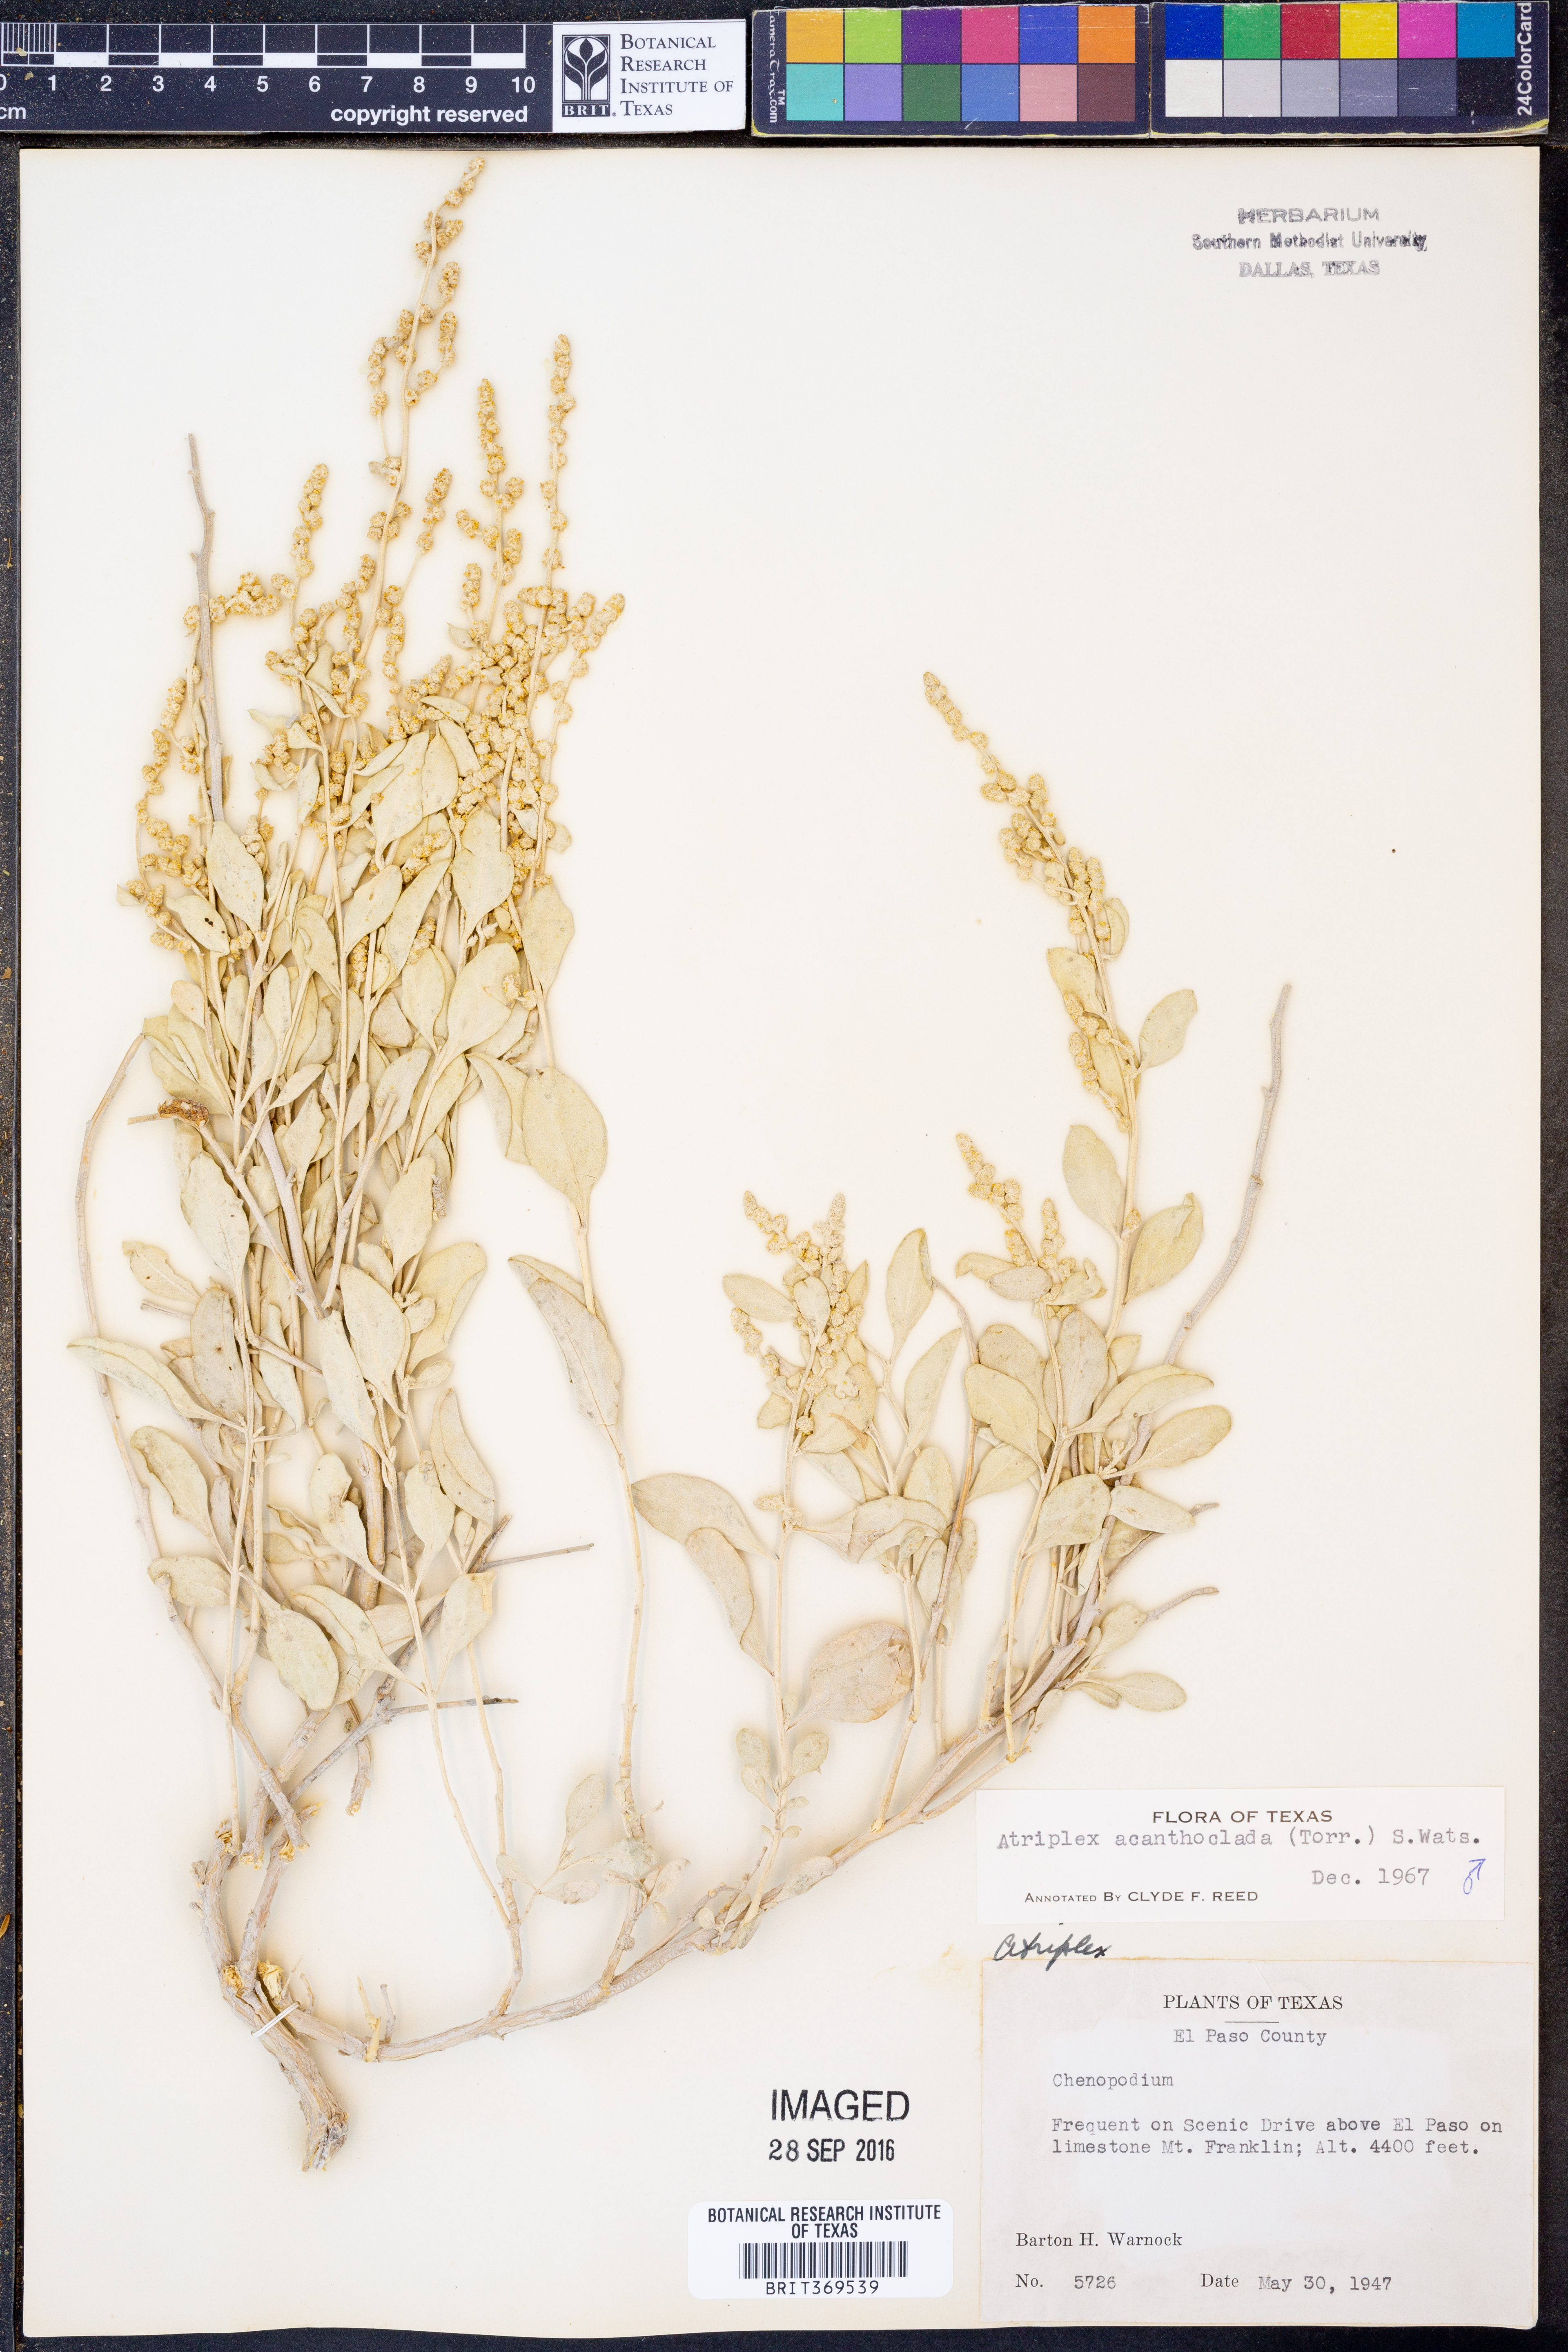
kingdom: Plantae
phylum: Tracheophyta
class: Magnoliopsida
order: Caryophyllales
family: Amaranthaceae
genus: Atriplex
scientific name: Atriplex acanthocarpa
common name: Burscale
